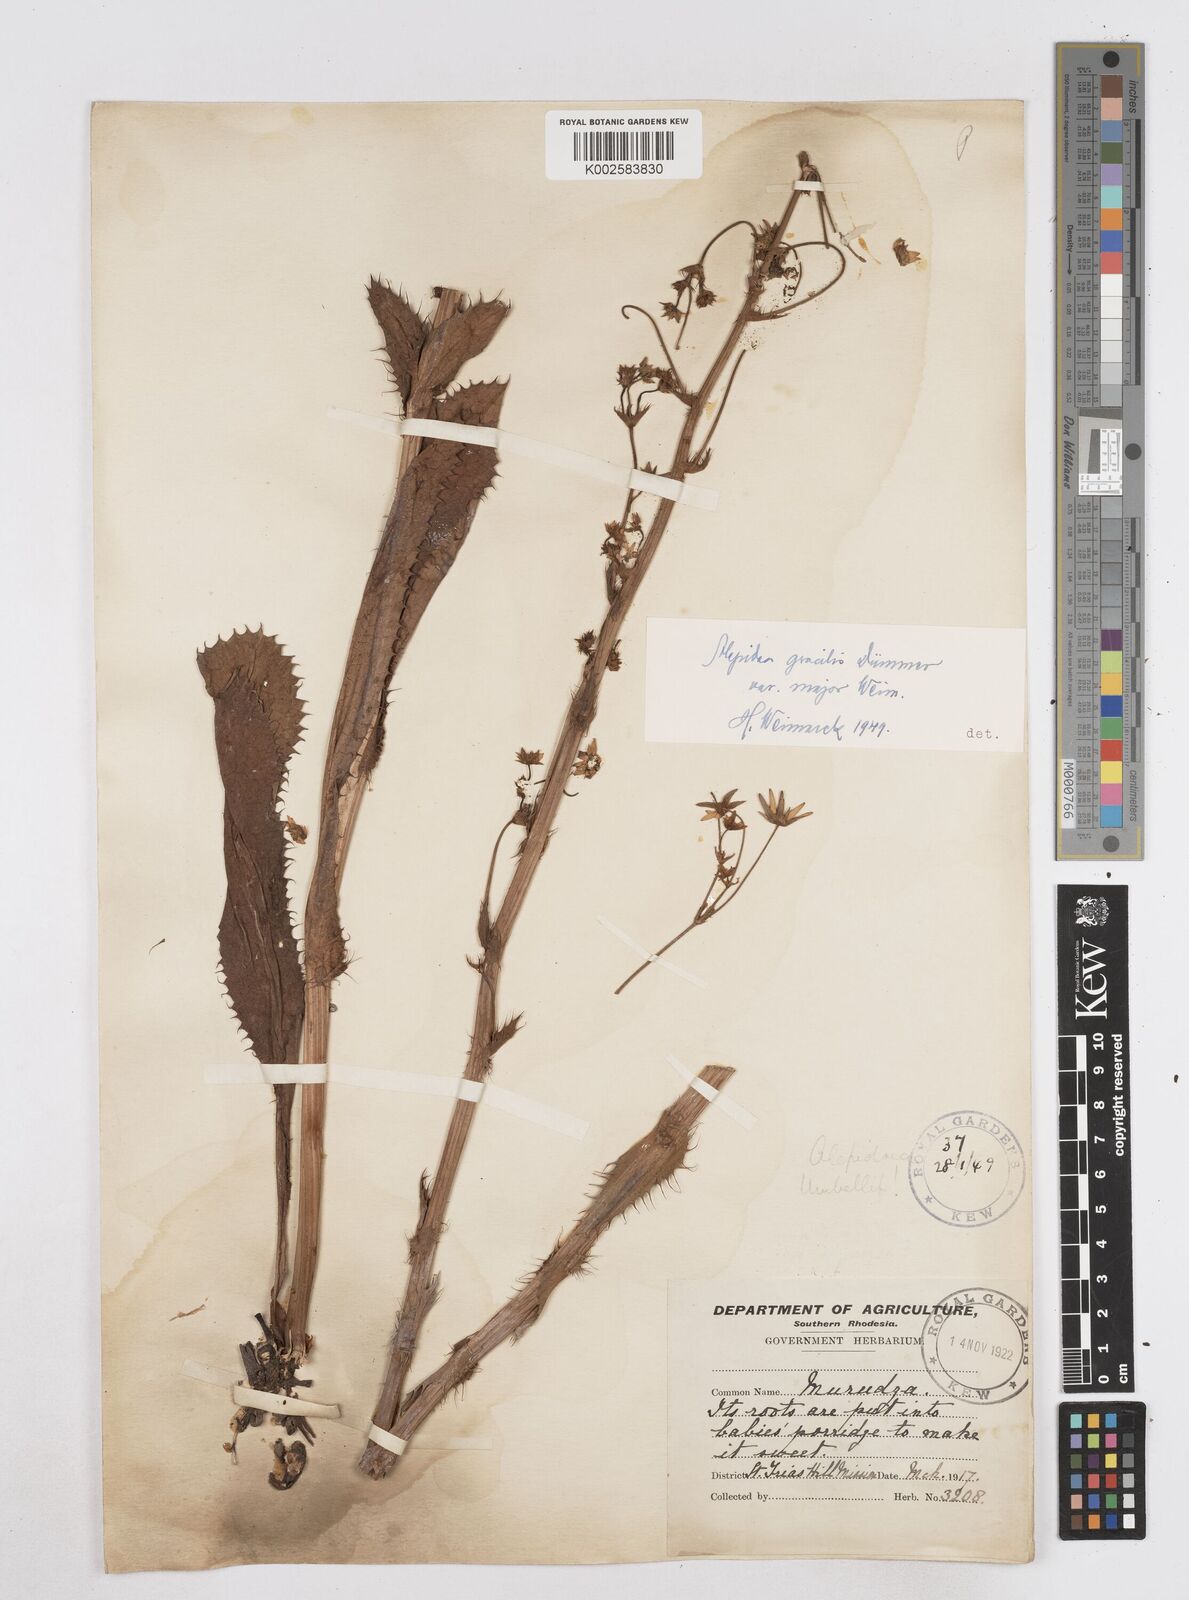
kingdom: Plantae
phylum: Tracheophyta
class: Magnoliopsida
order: Apiales
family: Apiaceae
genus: Alepidea
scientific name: Alepidea peduncularis
